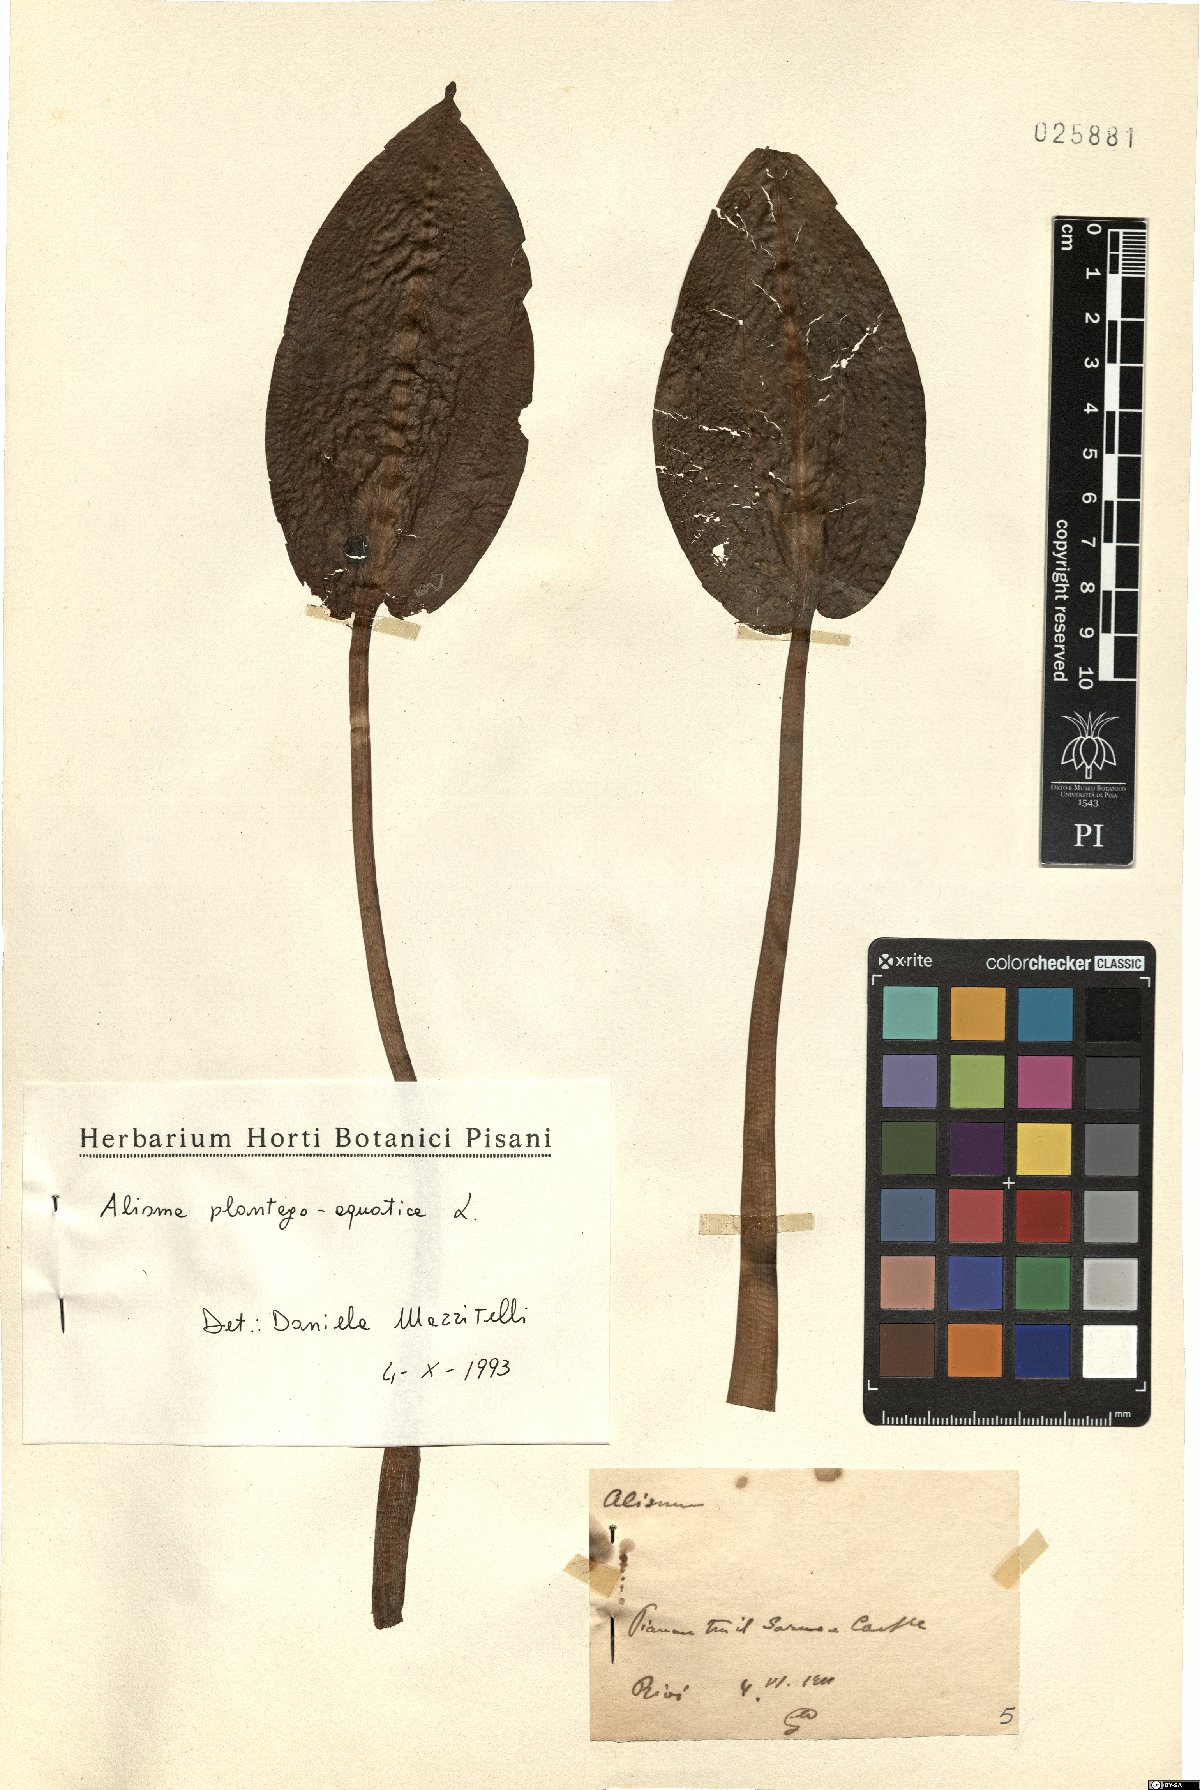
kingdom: Plantae
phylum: Tracheophyta
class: Liliopsida
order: Alismatales
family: Alismataceae
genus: Alisma
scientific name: Alisma plantago-aquatica
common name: Water-plantain
